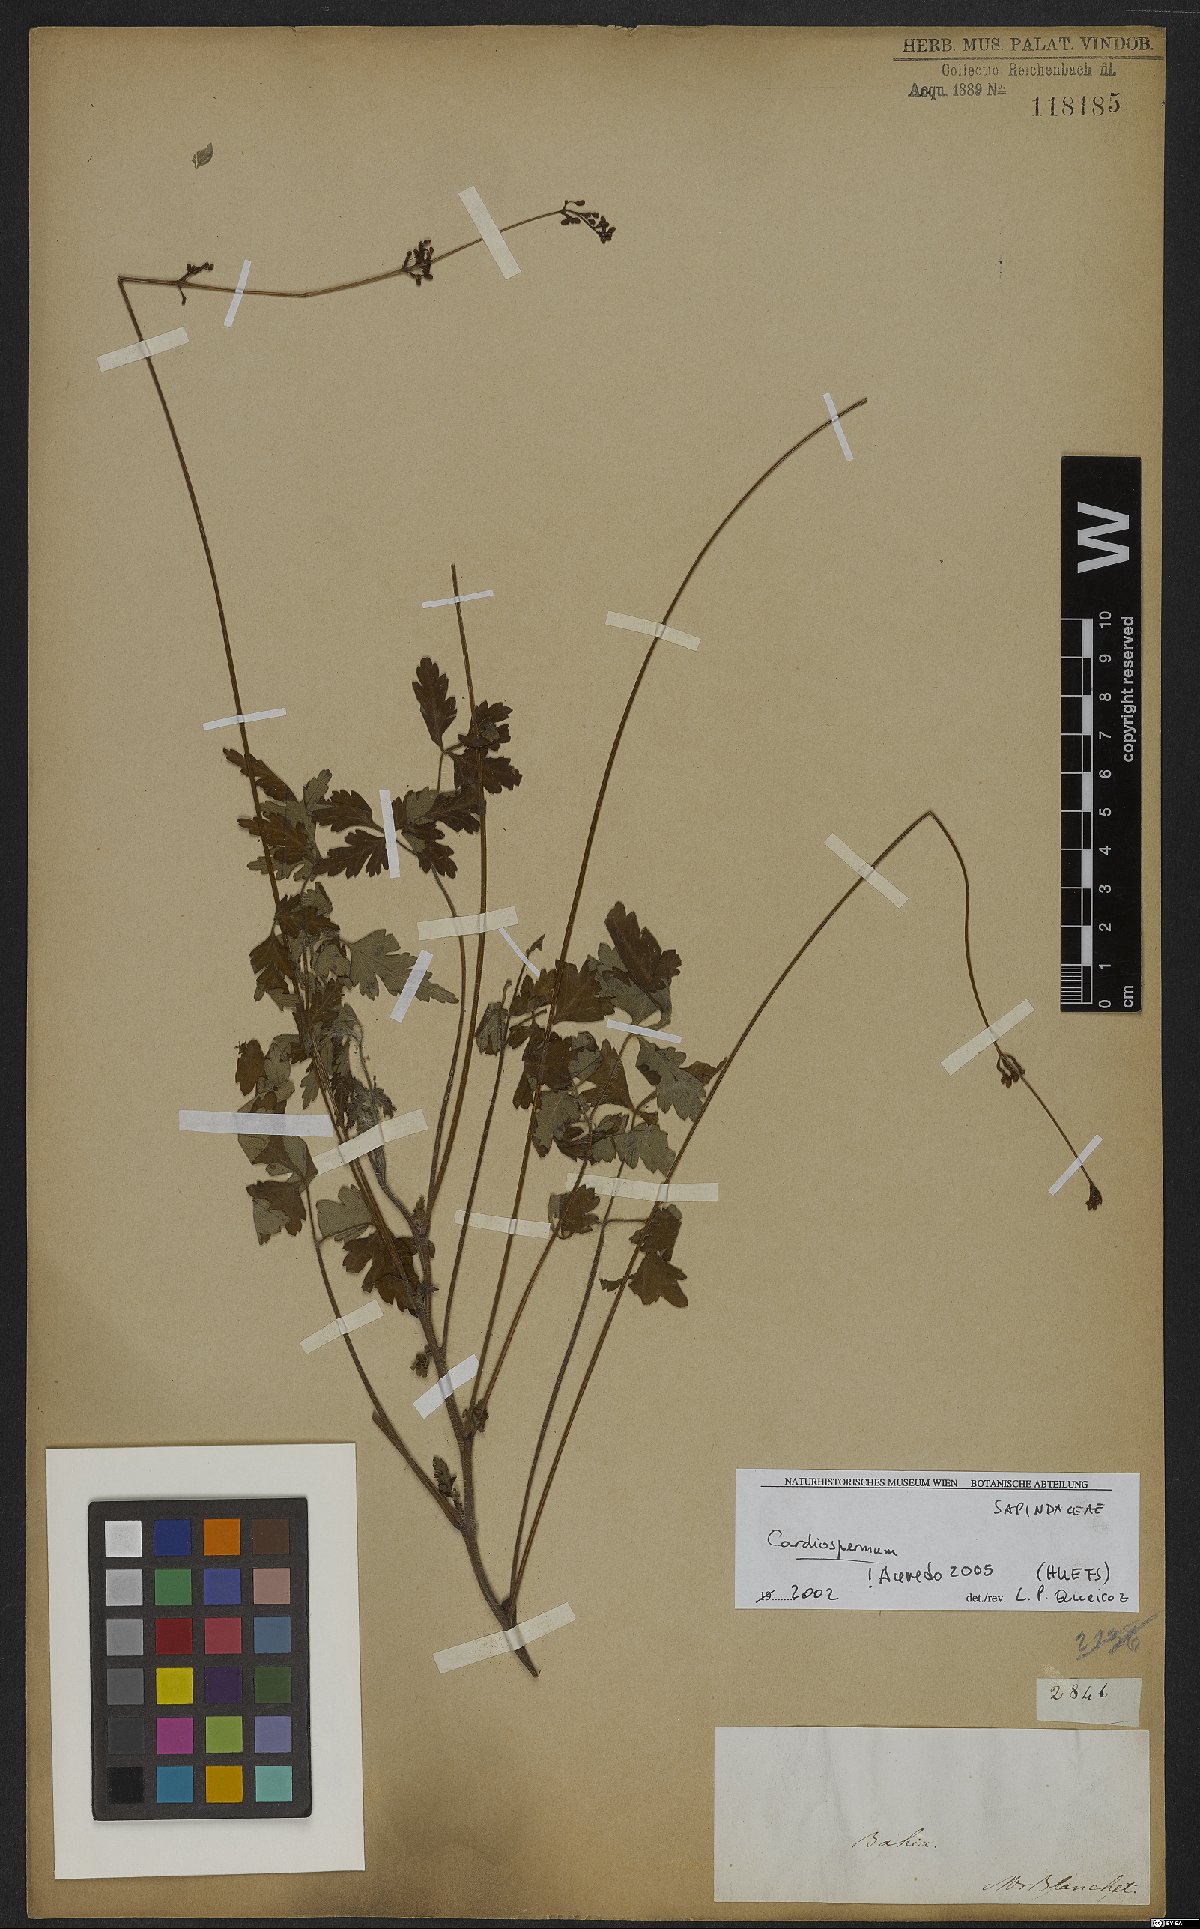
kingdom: Plantae
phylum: Tracheophyta
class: Magnoliopsida
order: Sapindales
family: Sapindaceae
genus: Cardiospermum
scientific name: Cardiospermum
